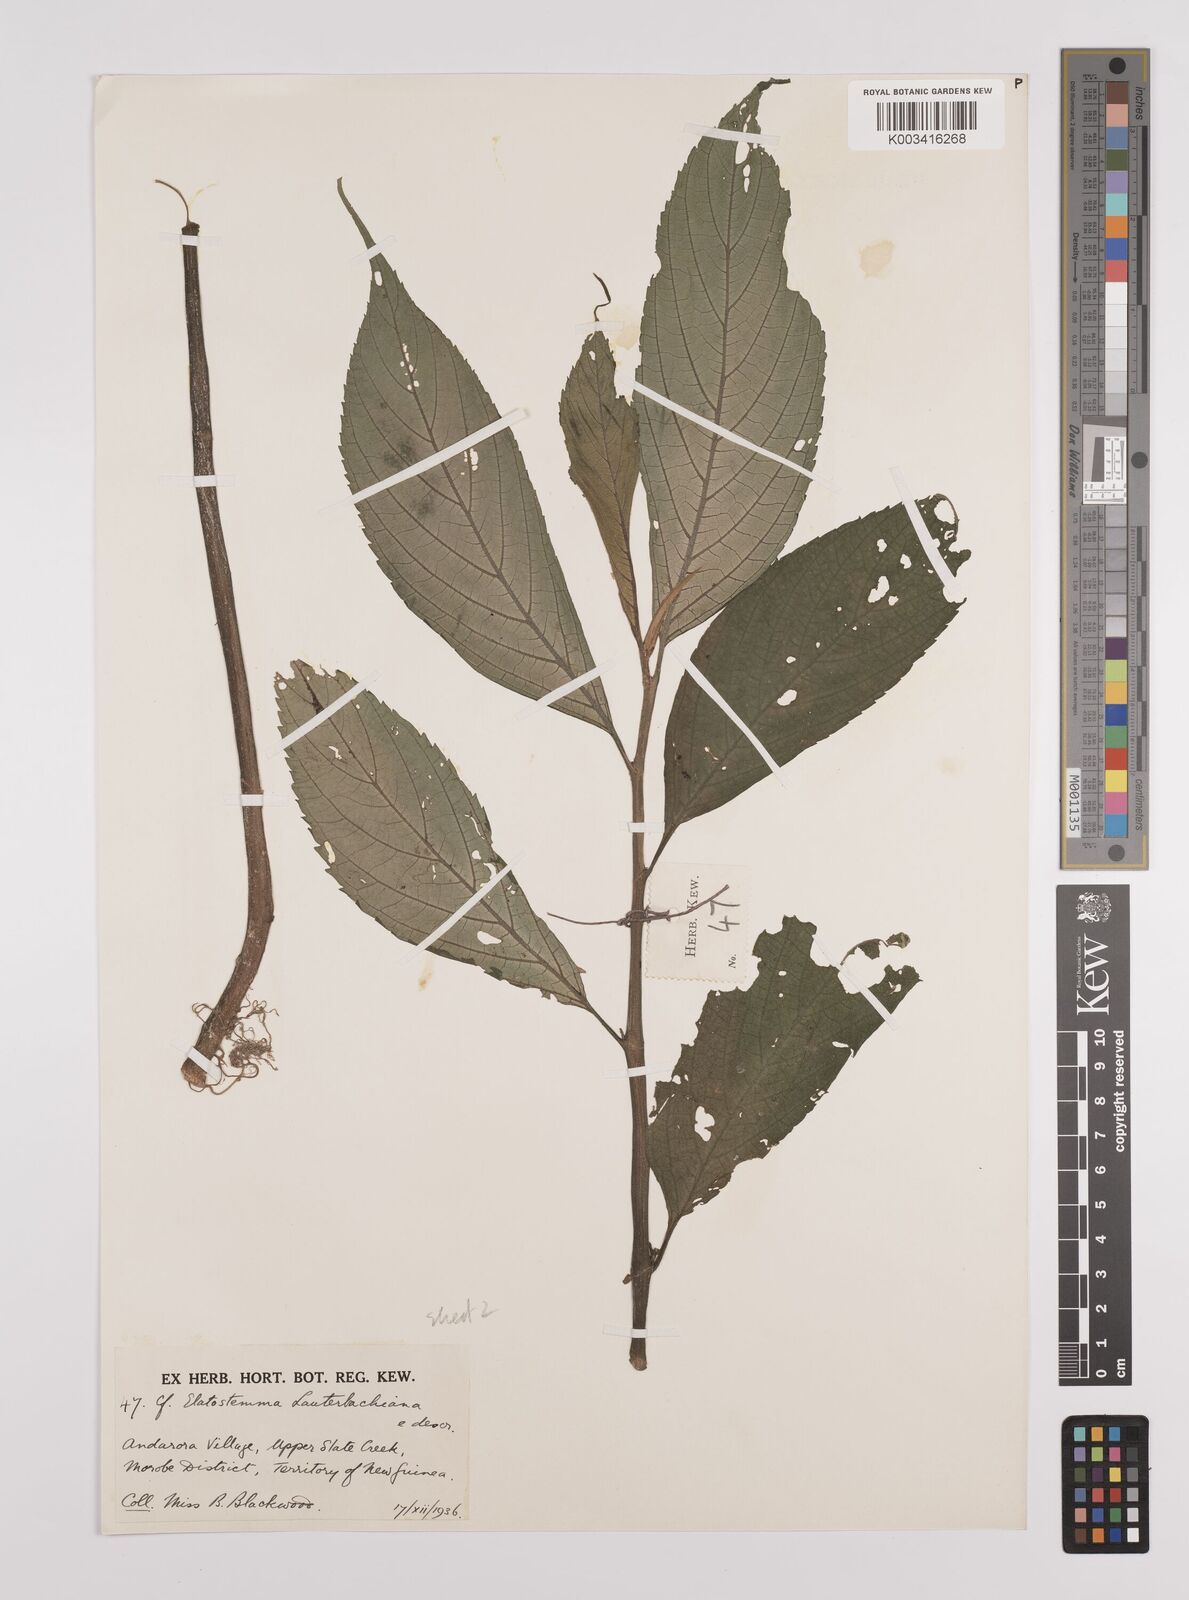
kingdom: Plantae
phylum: Tracheophyta
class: Magnoliopsida
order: Rosales
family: Urticaceae
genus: Elatostema
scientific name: Elatostema lauterbachii
